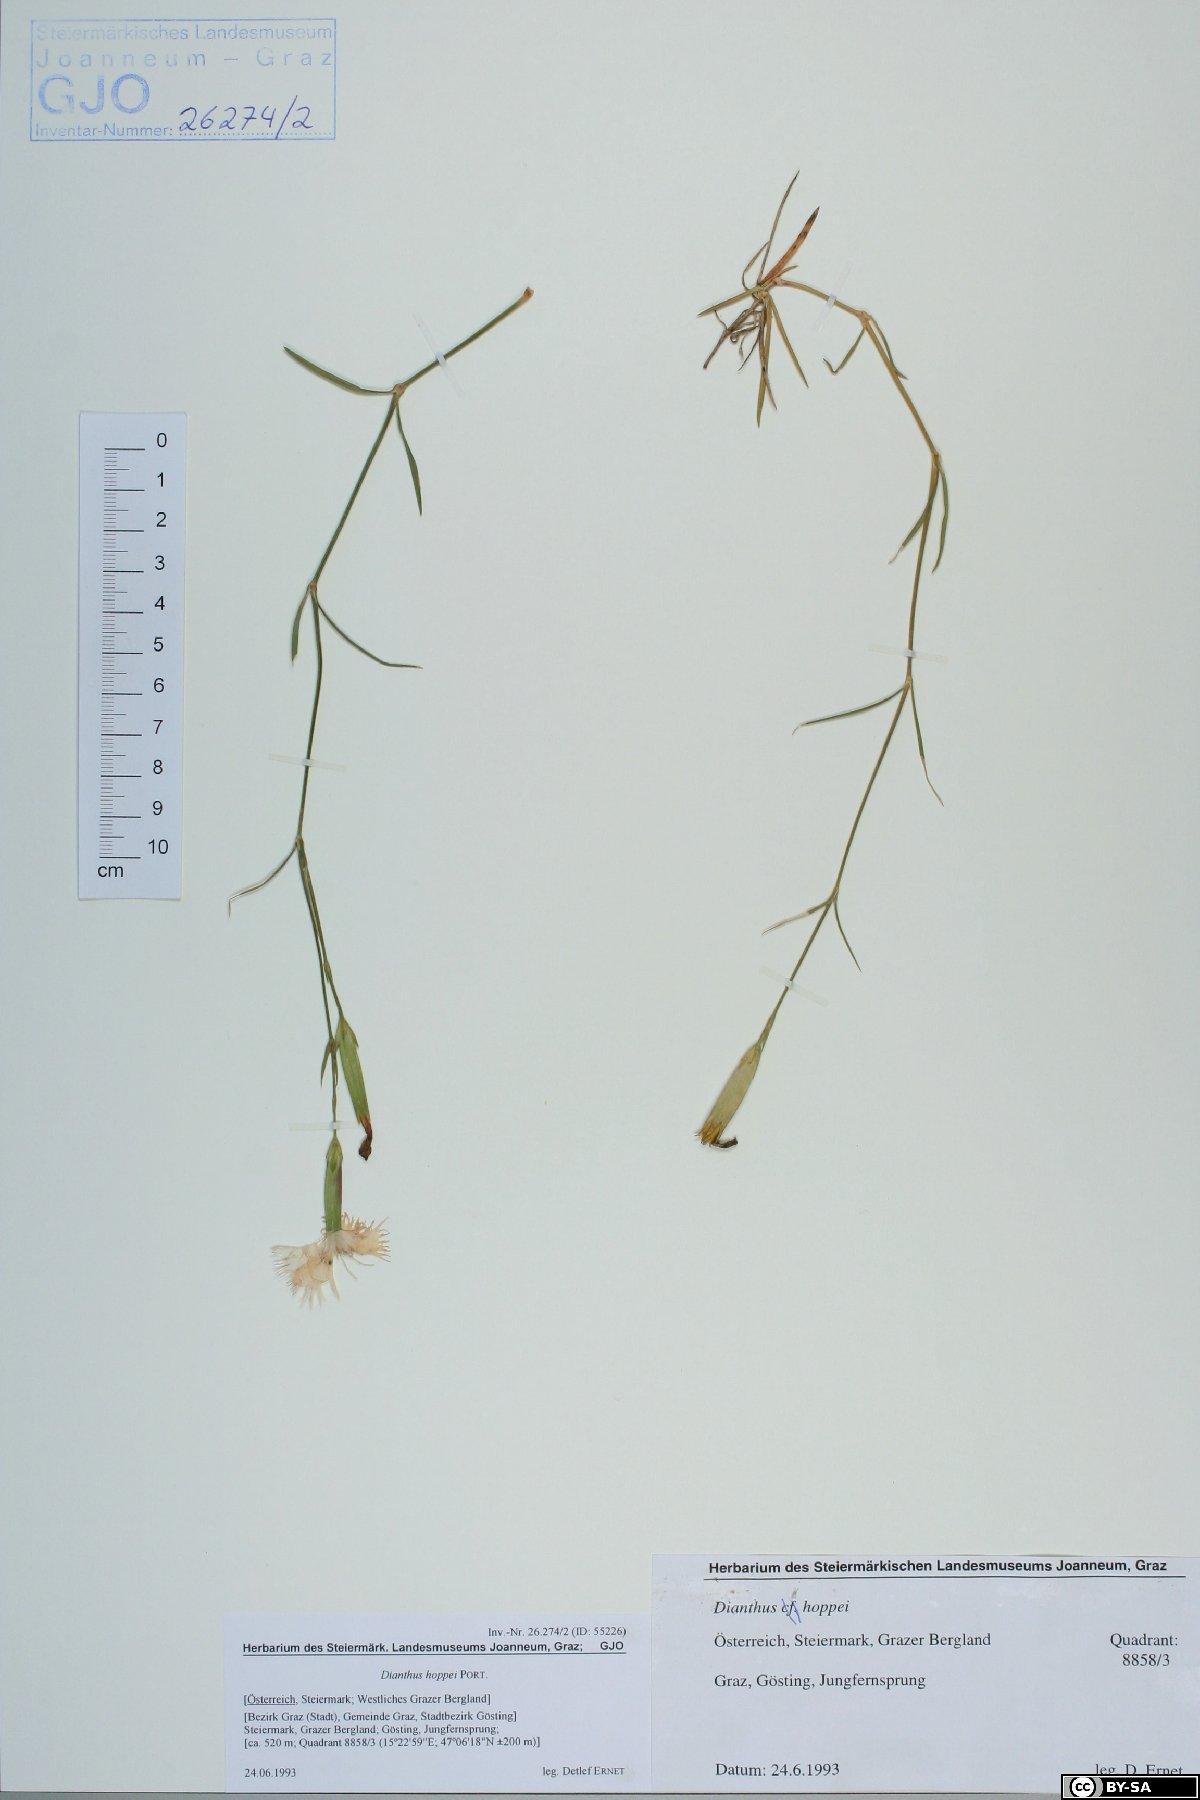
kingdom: Plantae
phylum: Tracheophyta
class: Magnoliopsida
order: Caryophyllales
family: Caryophyllaceae
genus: Dianthus
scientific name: Dianthus plumarius
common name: Pink
